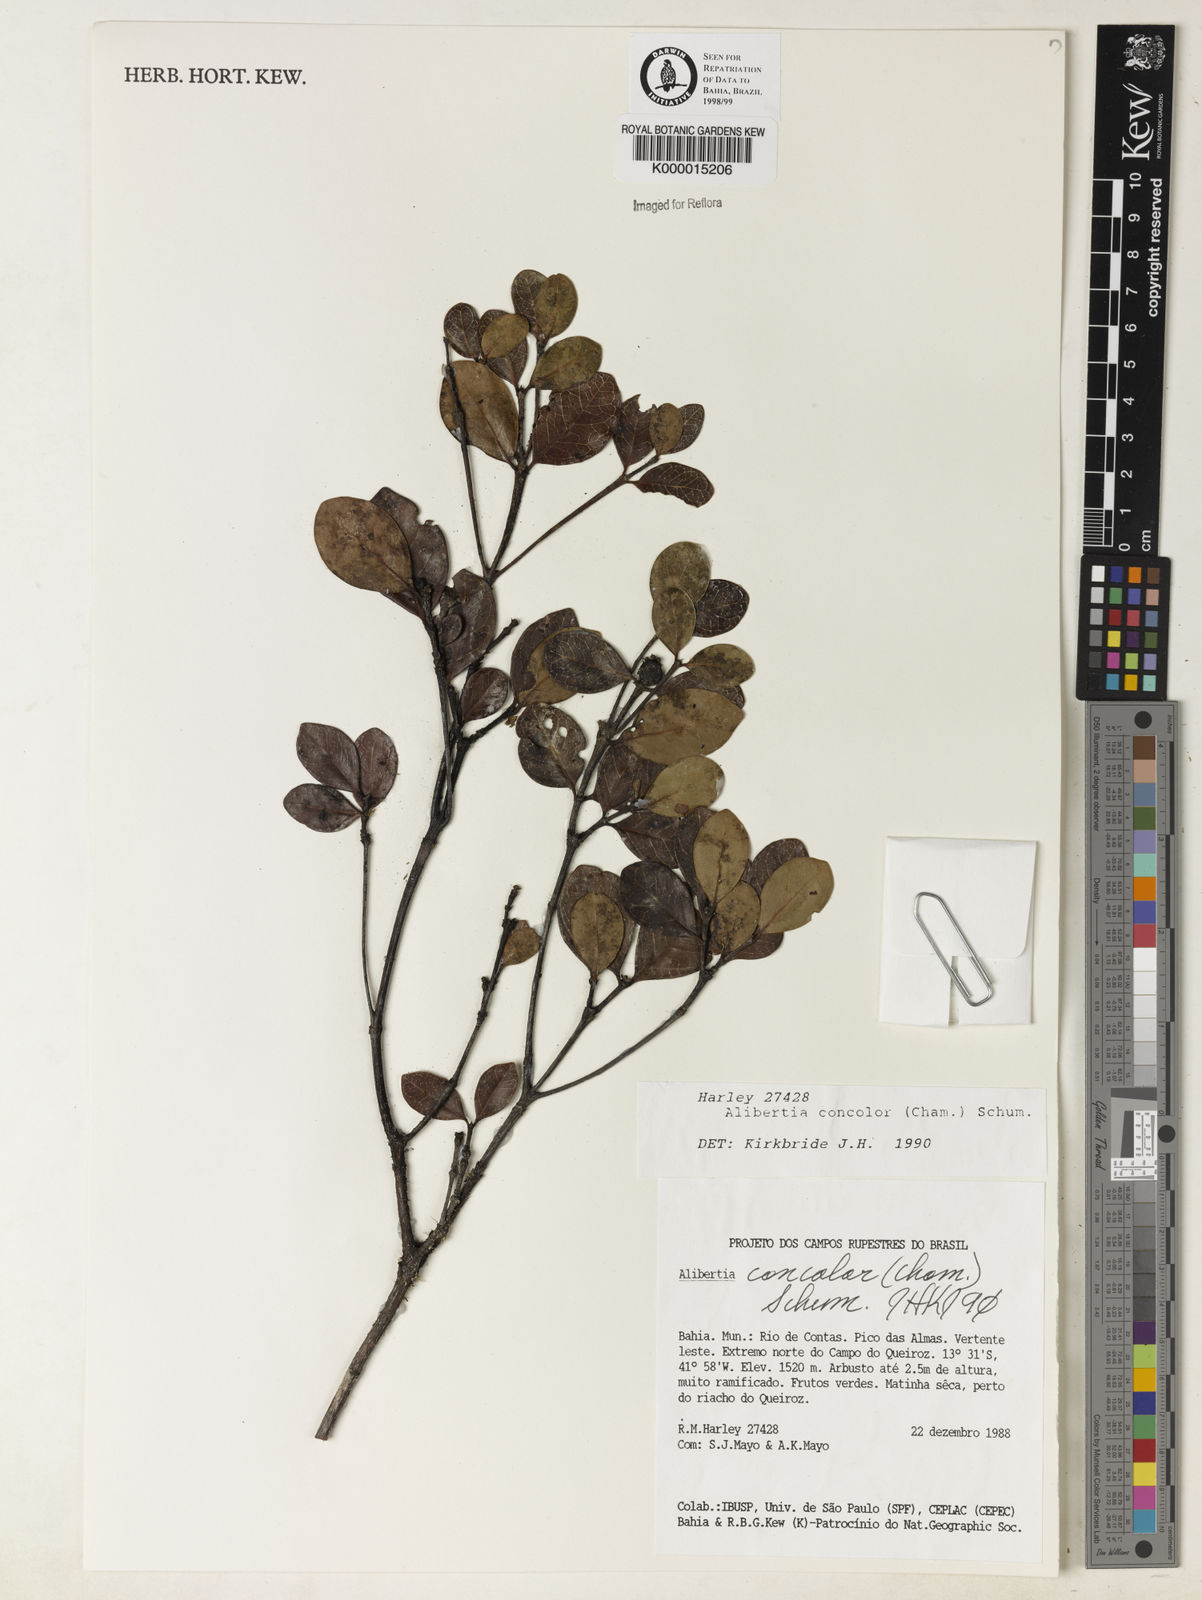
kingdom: Plantae
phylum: Tracheophyta
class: Magnoliopsida
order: Gentianales
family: Rubiaceae
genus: Cordiera
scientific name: Cordiera concolor
